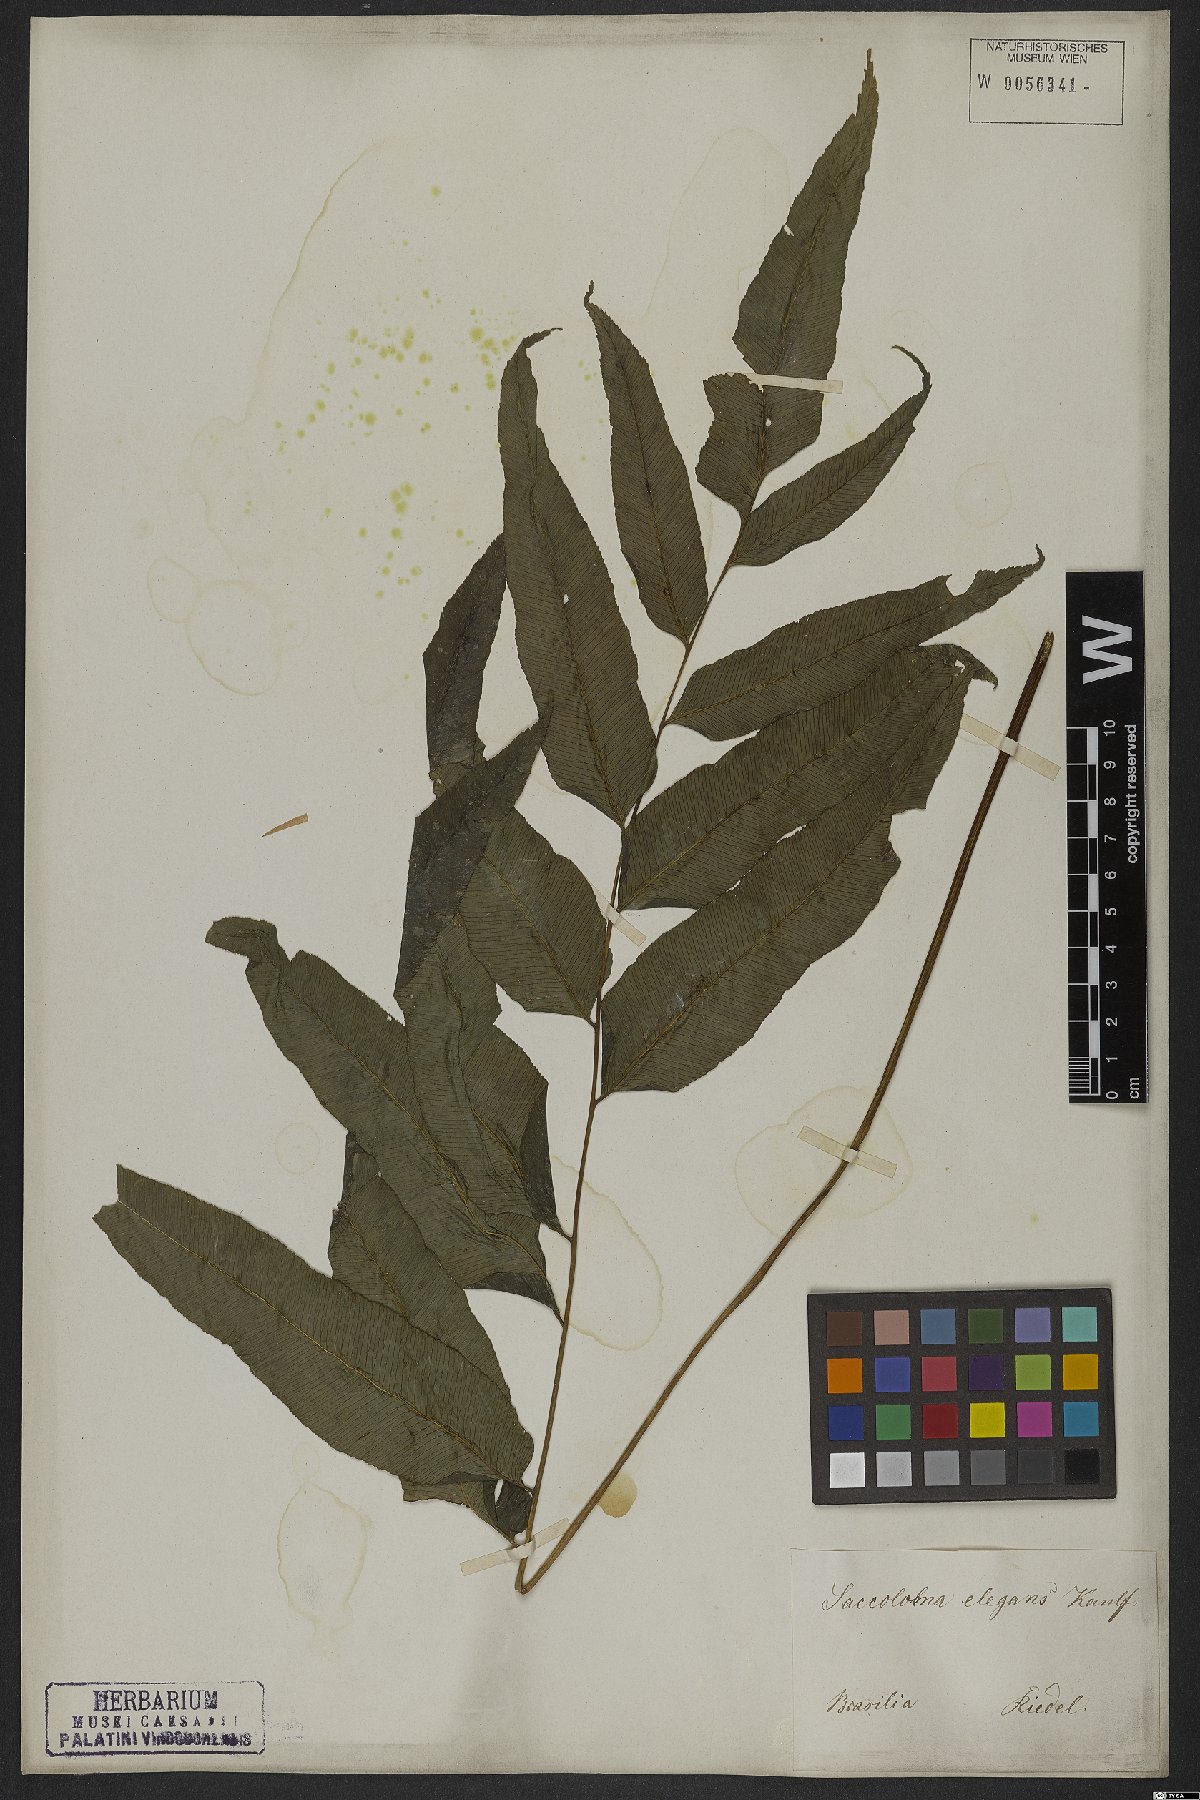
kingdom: Plantae
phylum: Tracheophyta
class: Polypodiopsida
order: Polypodiales
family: Saccolomataceae
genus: Saccoloma
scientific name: Saccoloma elegans
